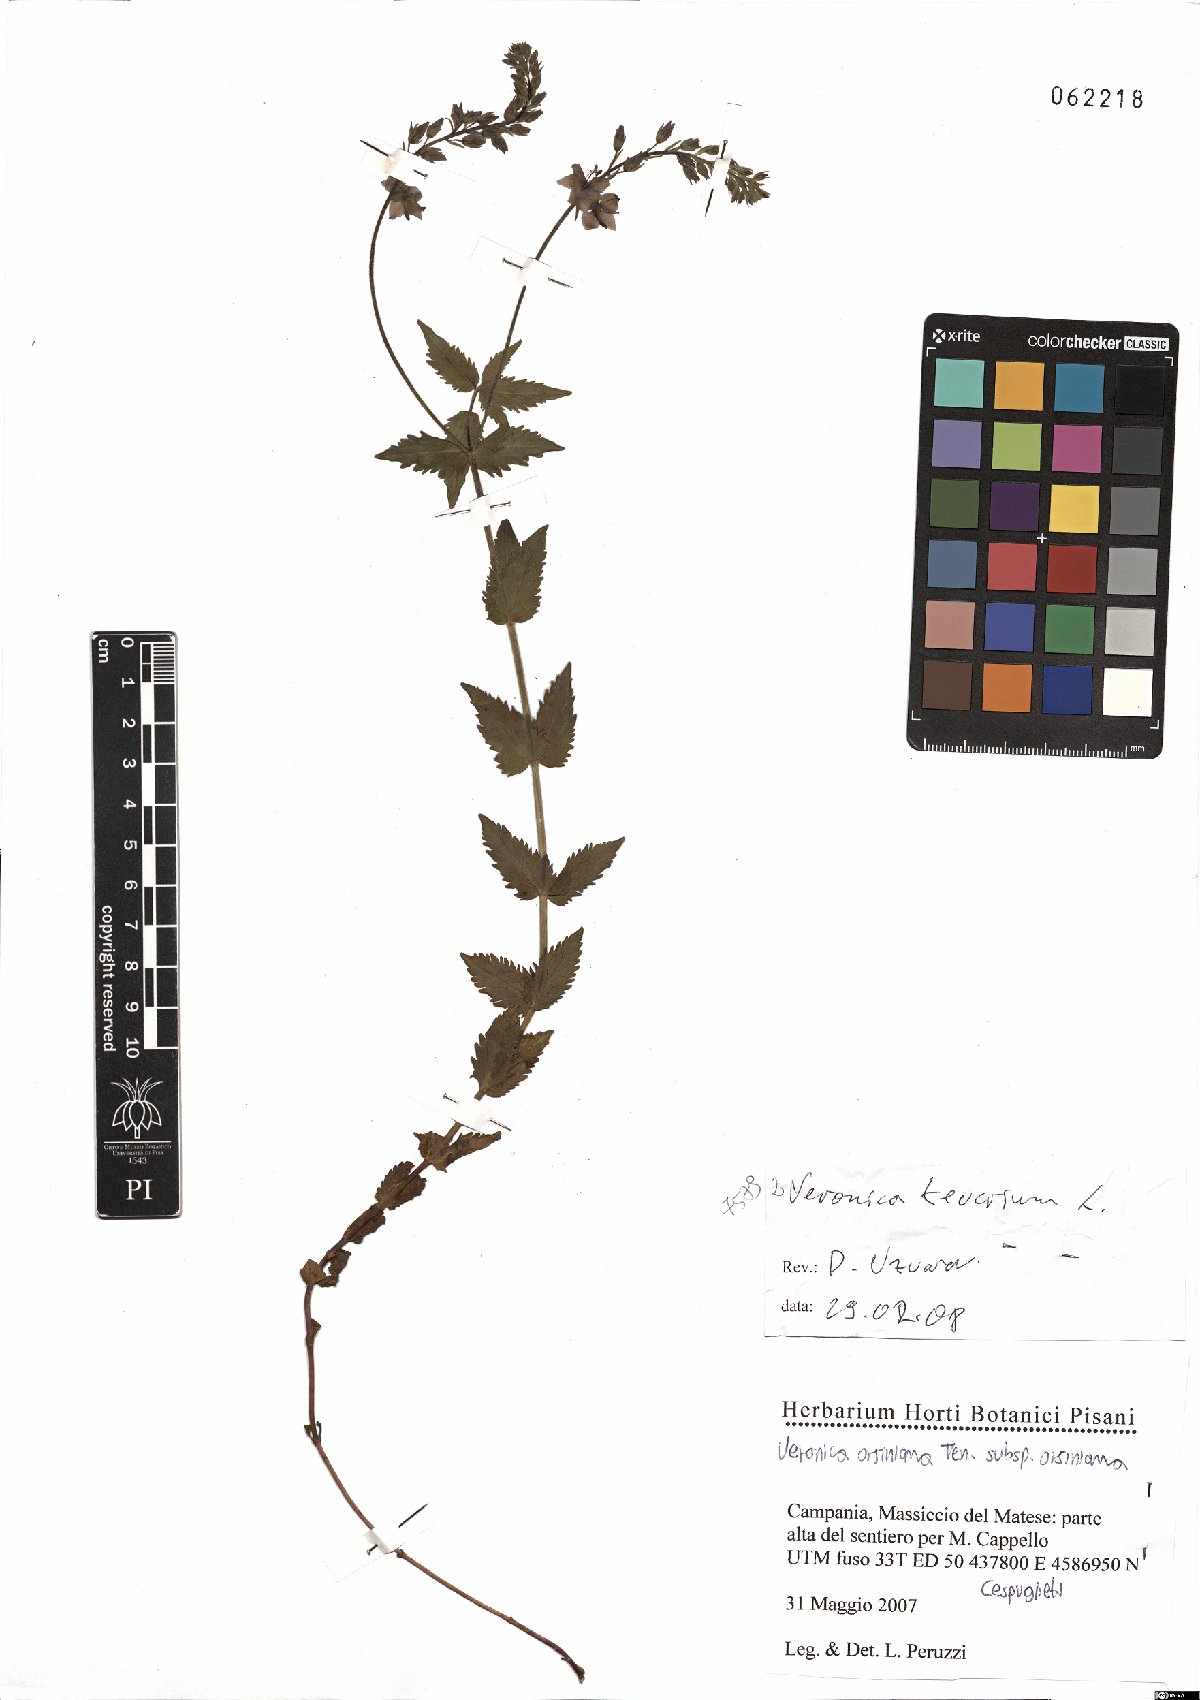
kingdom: Plantae
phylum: Tracheophyta
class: Magnoliopsida
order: Lamiales
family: Plantaginaceae
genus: Veronica
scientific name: Veronica teucrium
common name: Large speedwell
